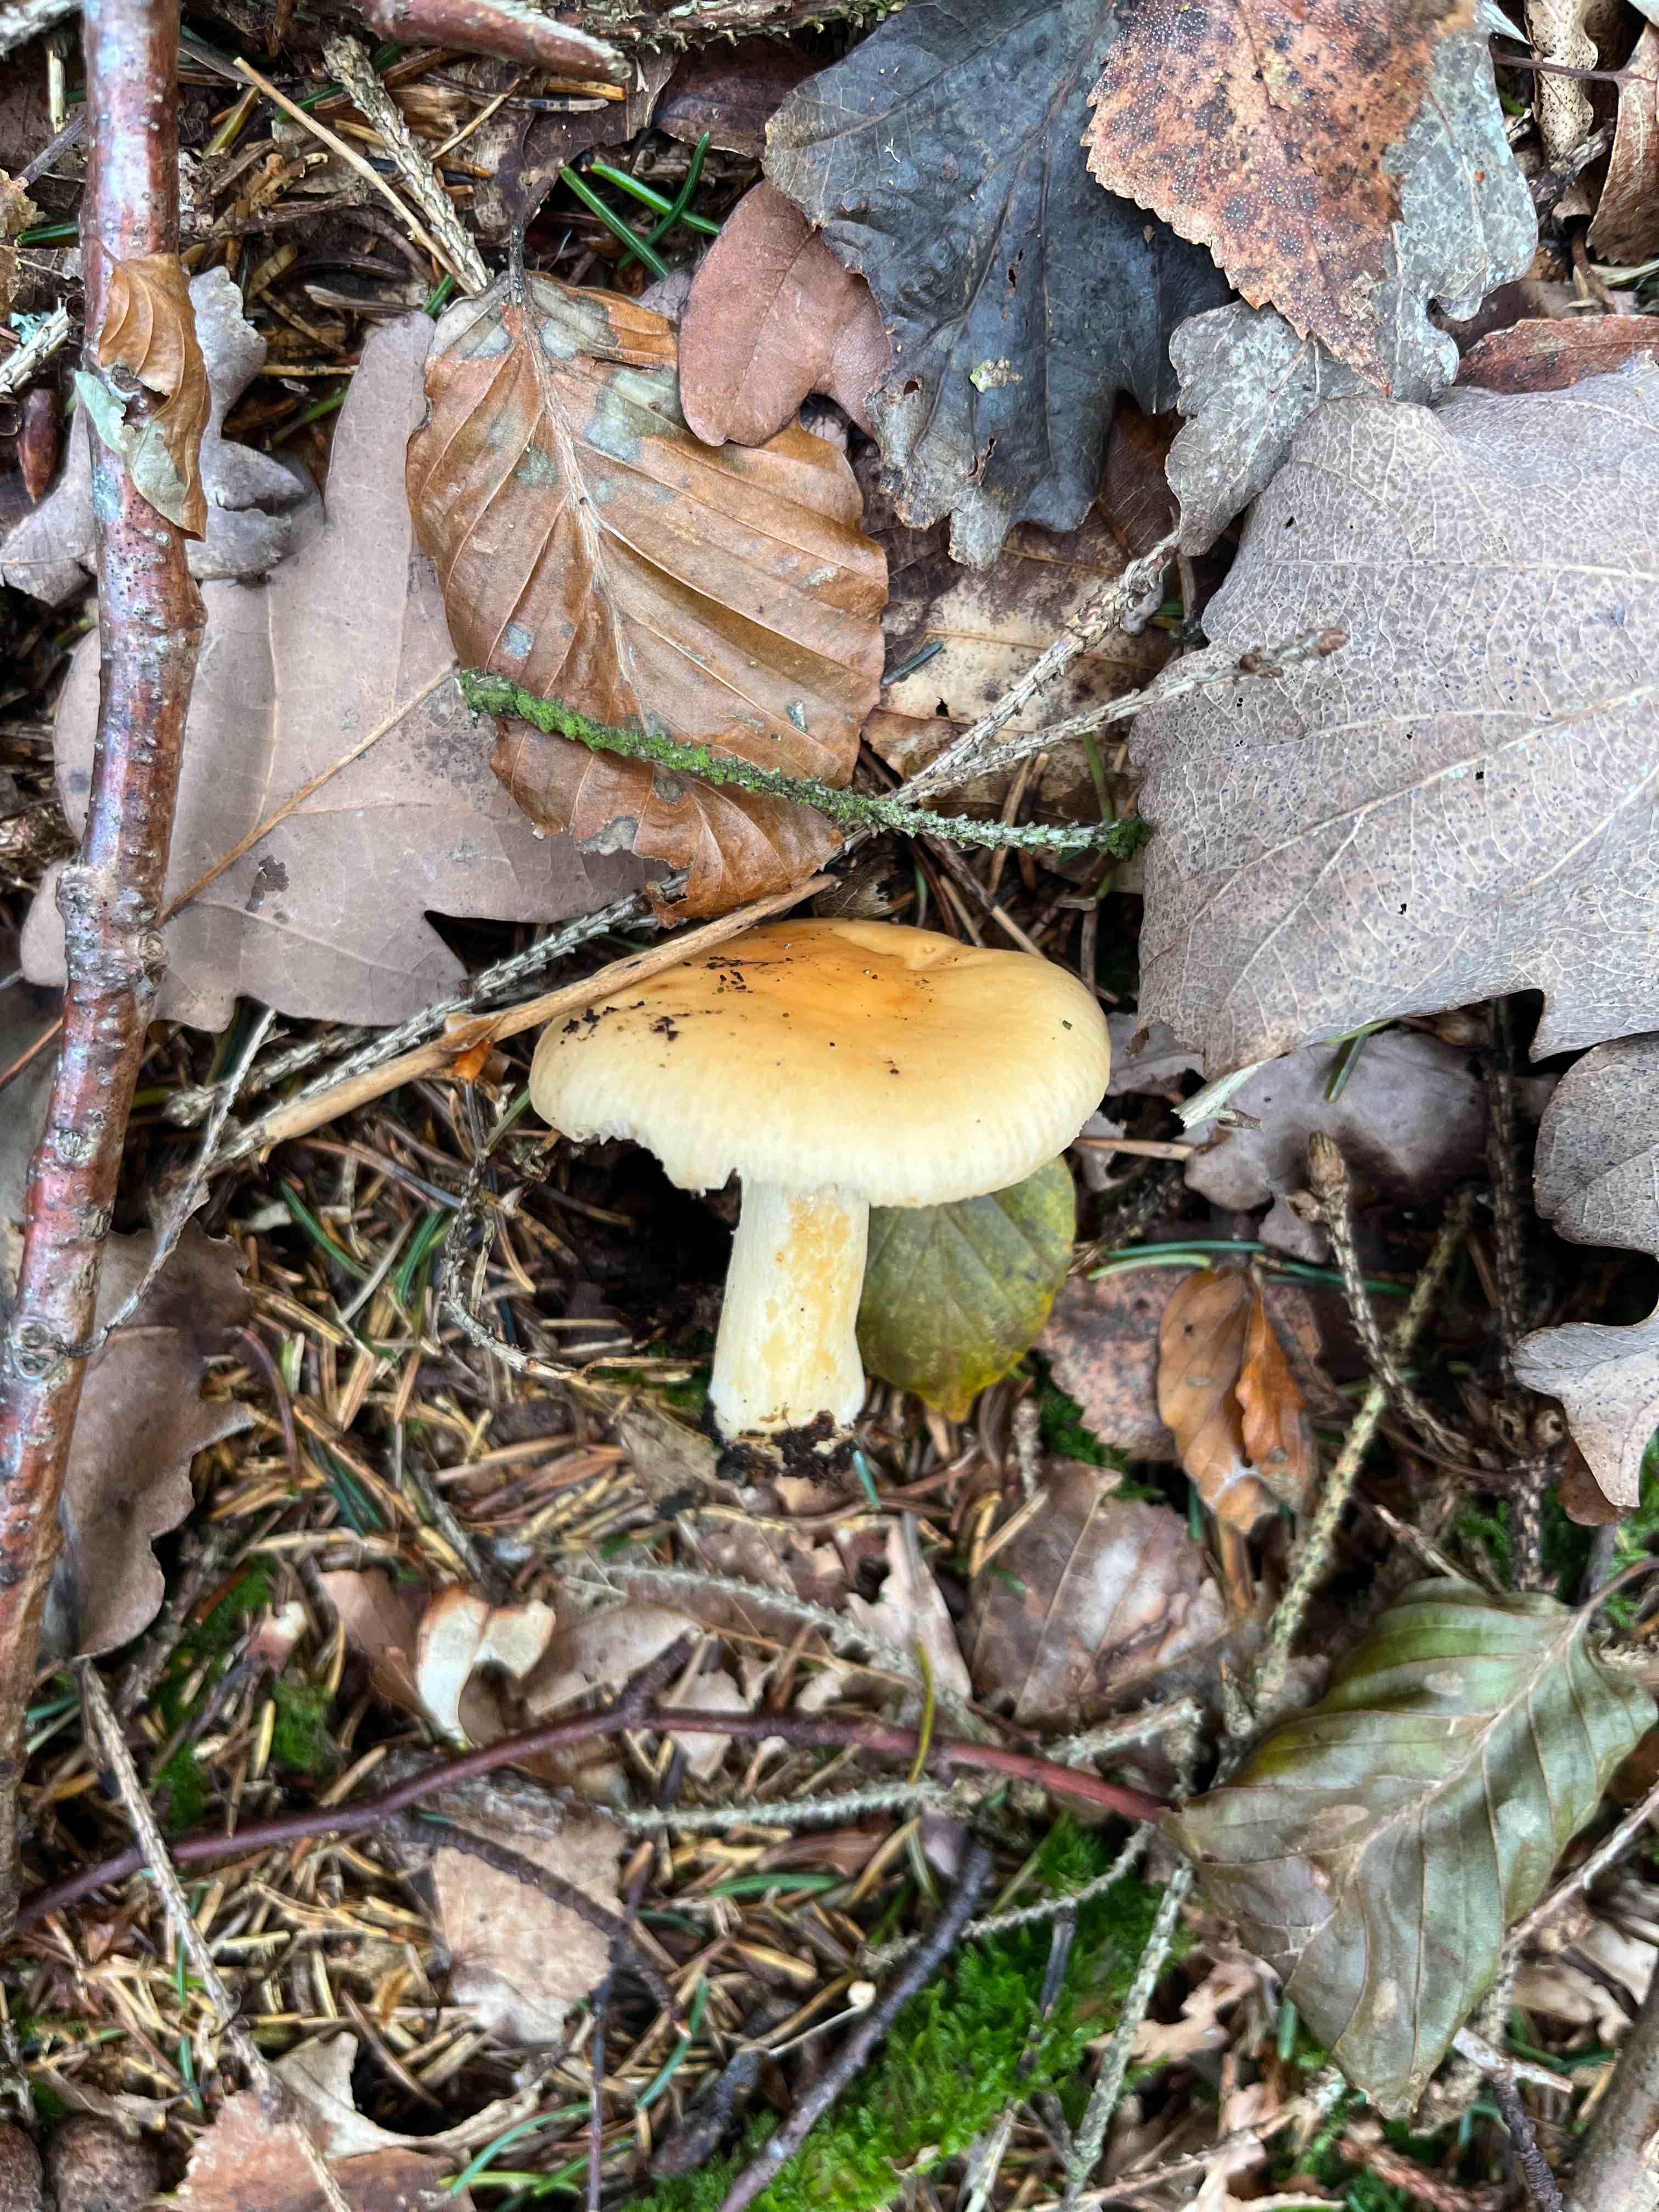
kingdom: Fungi
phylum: Basidiomycota
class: Agaricomycetes
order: Russulales
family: Russulaceae
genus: Russula
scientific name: Russula
